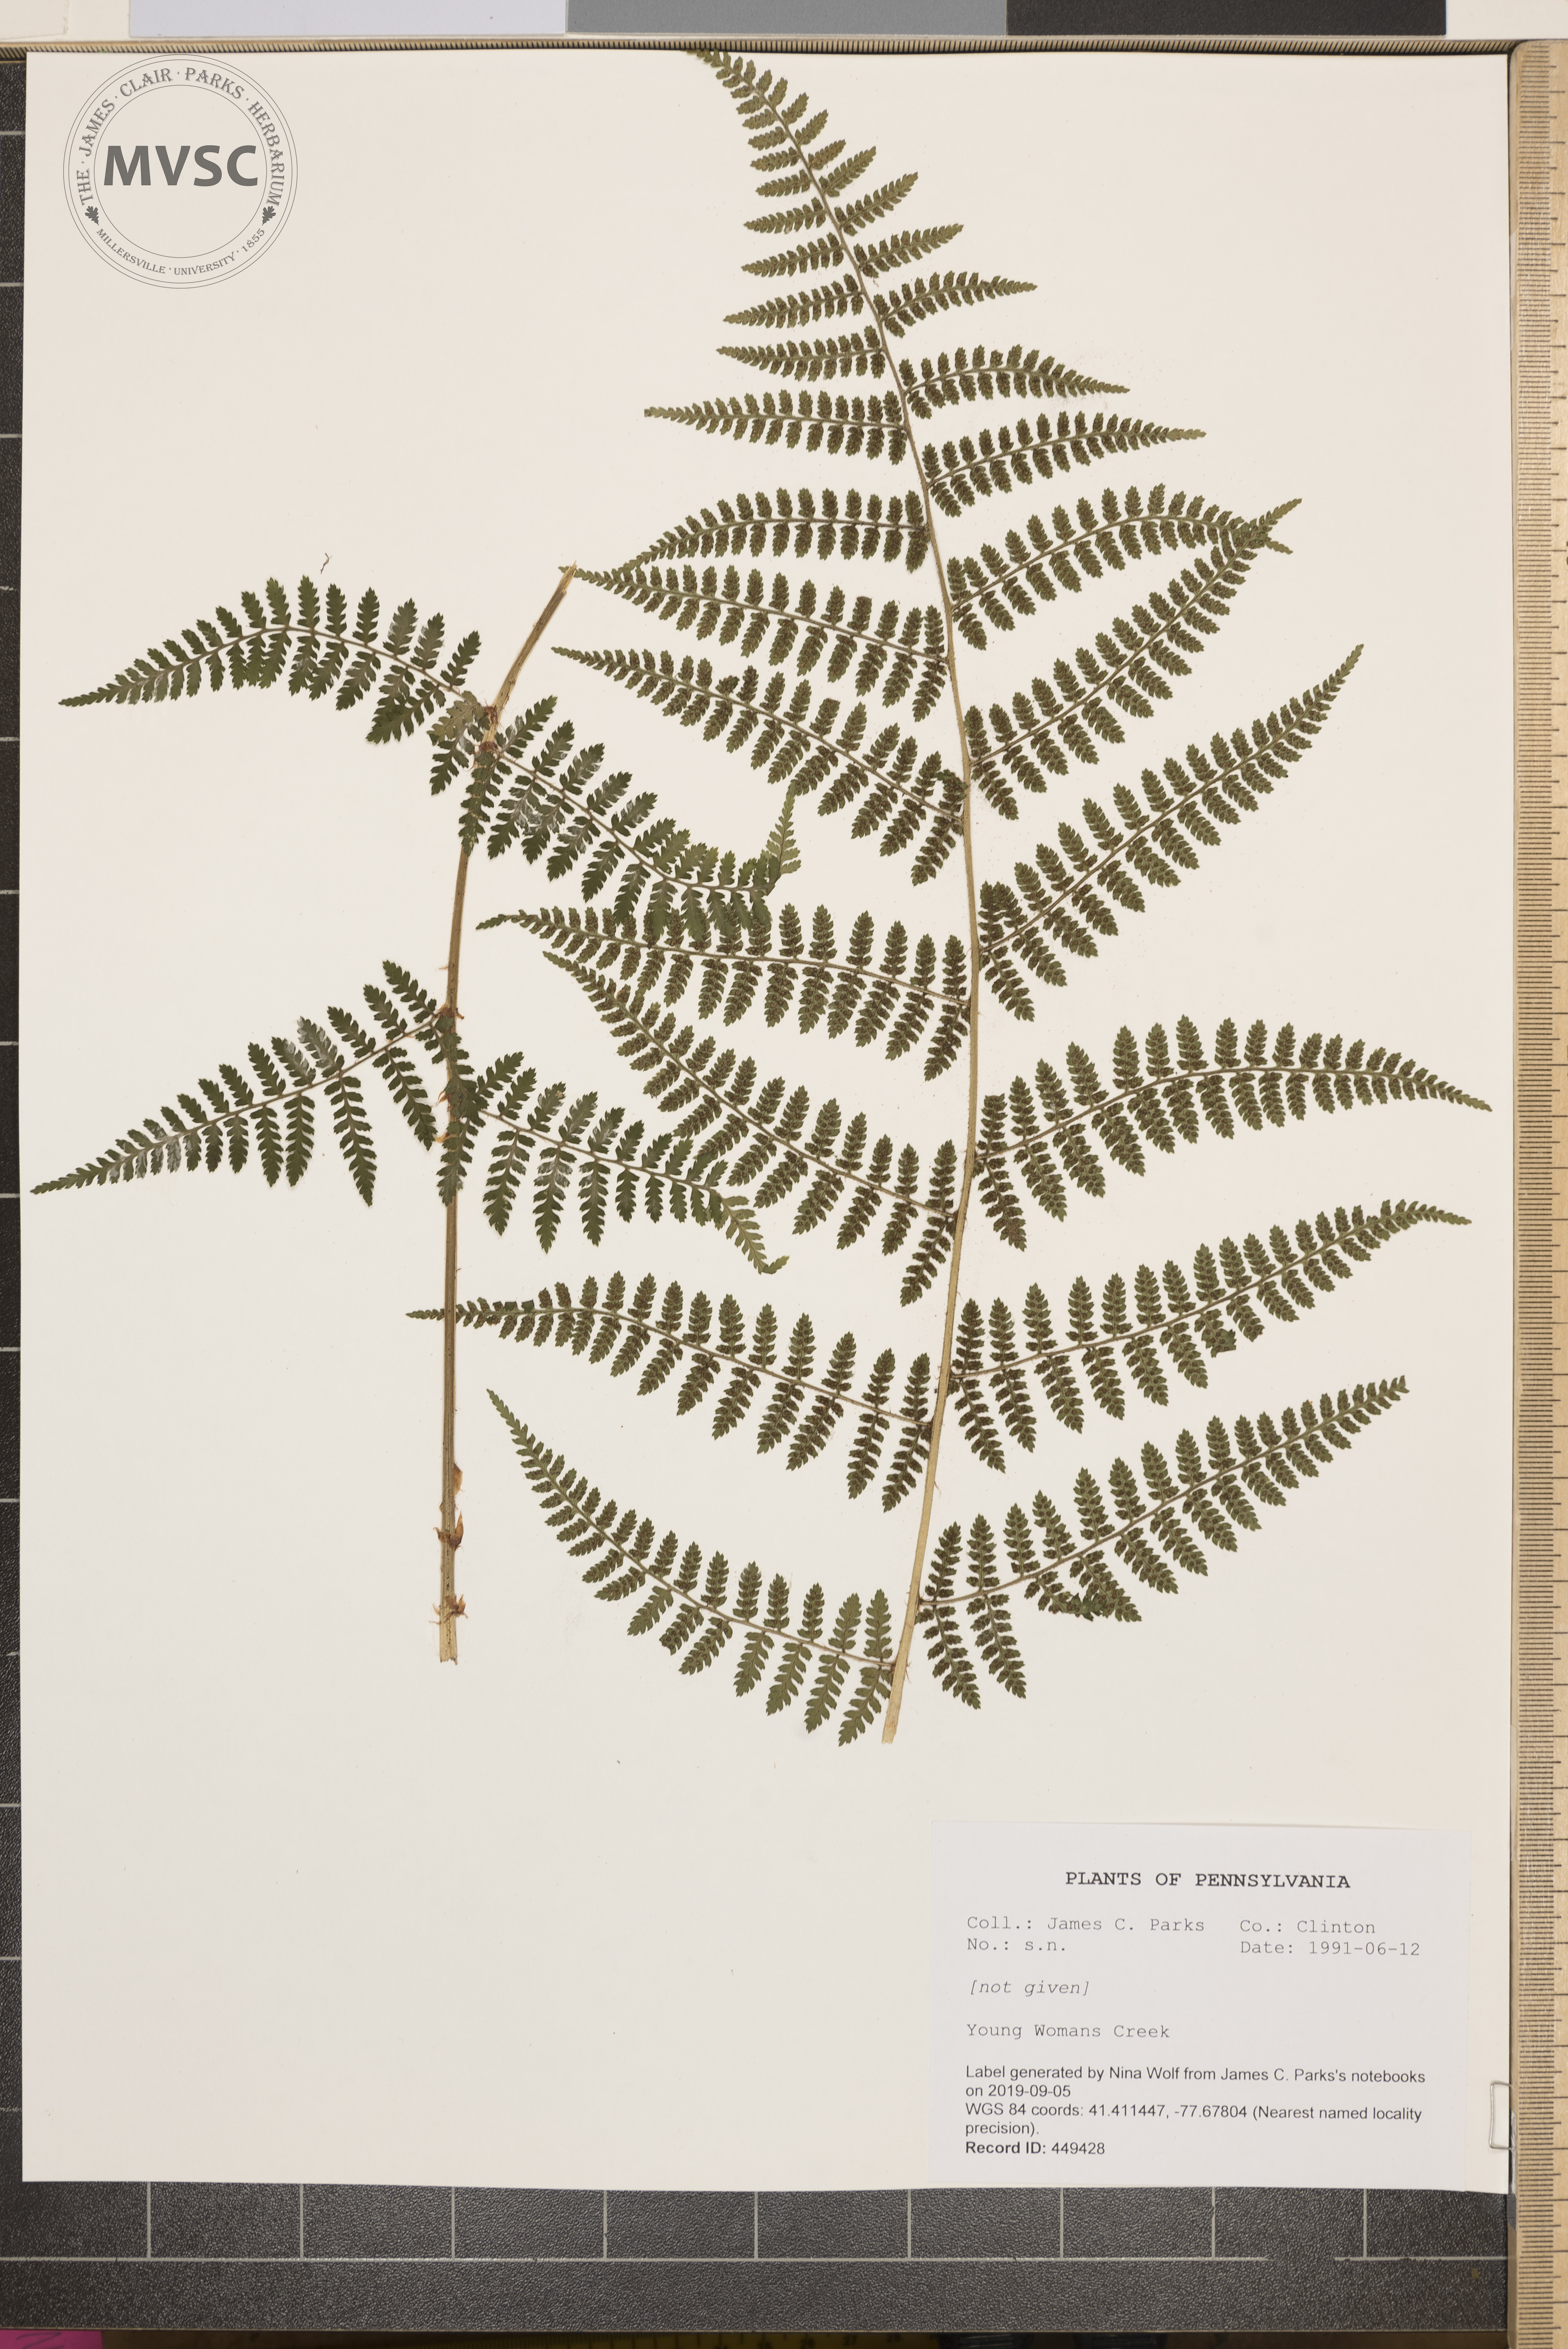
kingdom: Plantae
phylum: Tracheophyta
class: Polypodiopsida
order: Polypodiales
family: Dryopteridaceae
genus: Dryopteris
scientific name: Dryopteris intermedia
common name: Evergreen wood fern
